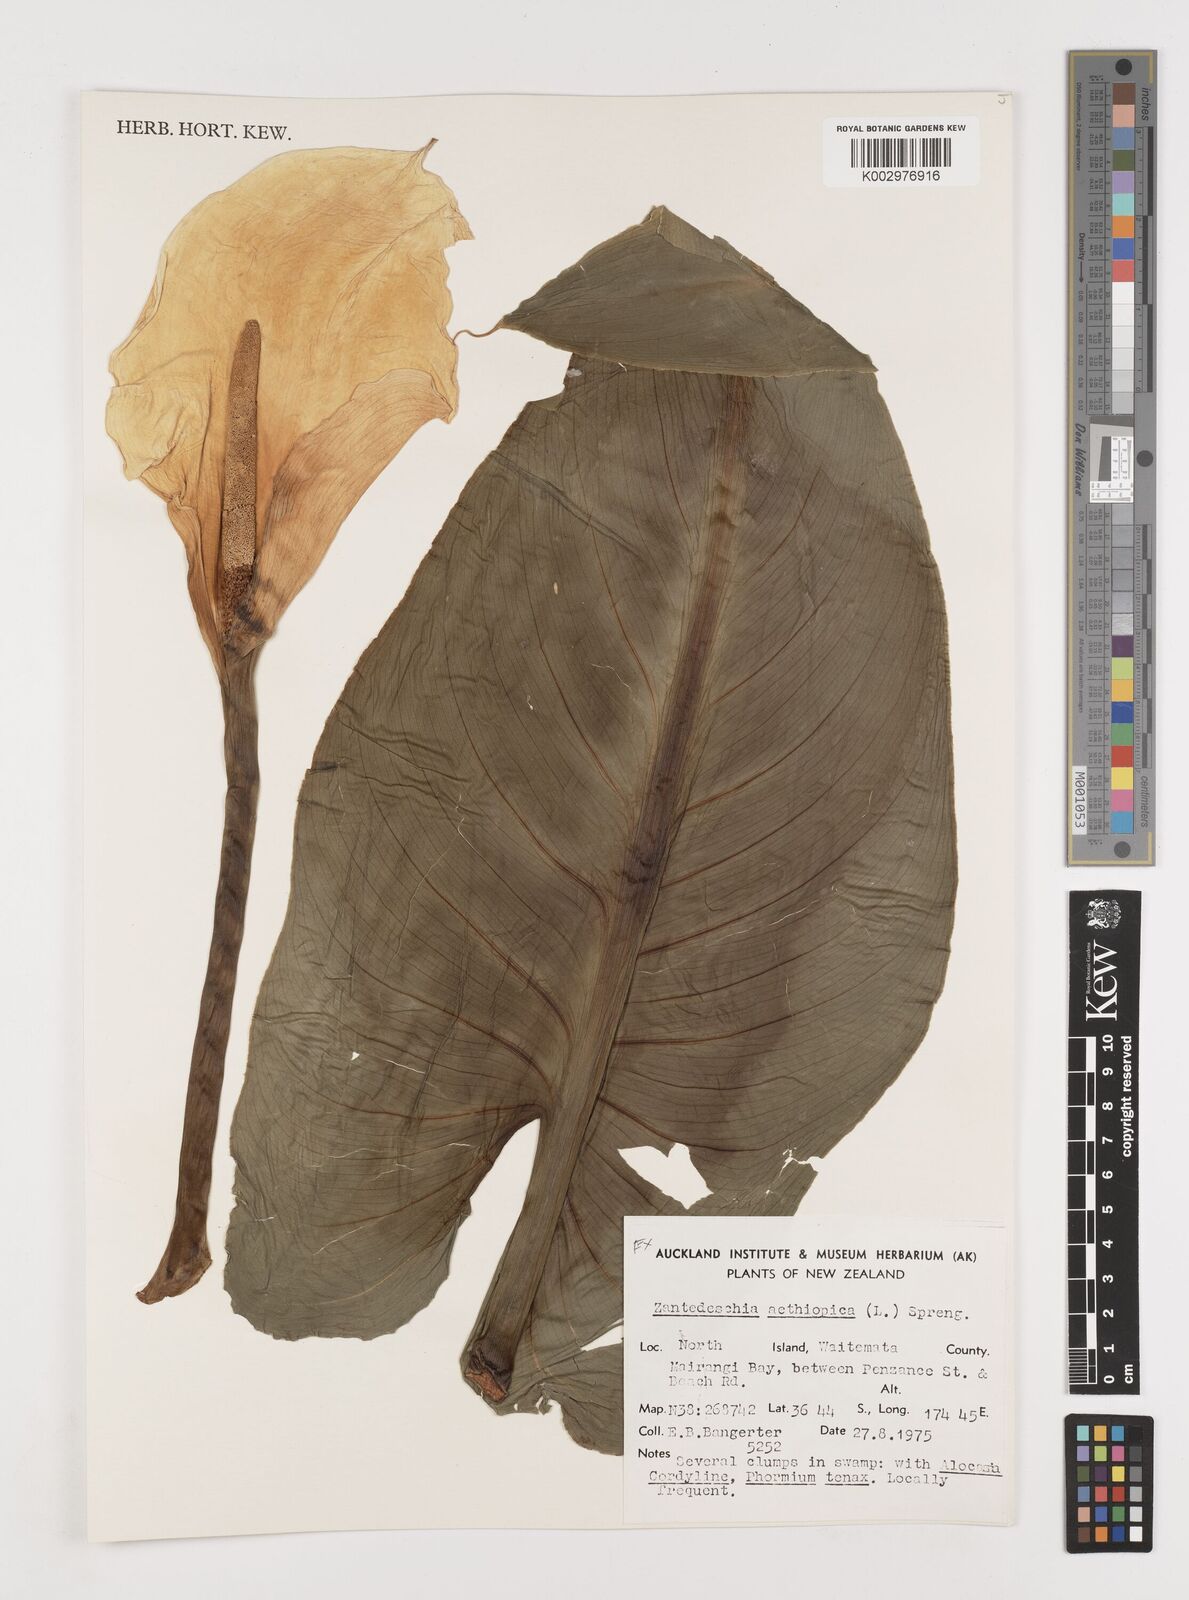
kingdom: Plantae
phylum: Tracheophyta
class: Liliopsida
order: Alismatales
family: Araceae
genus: Zantedeschia
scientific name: Zantedeschia aethiopica
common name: Altar-lily
